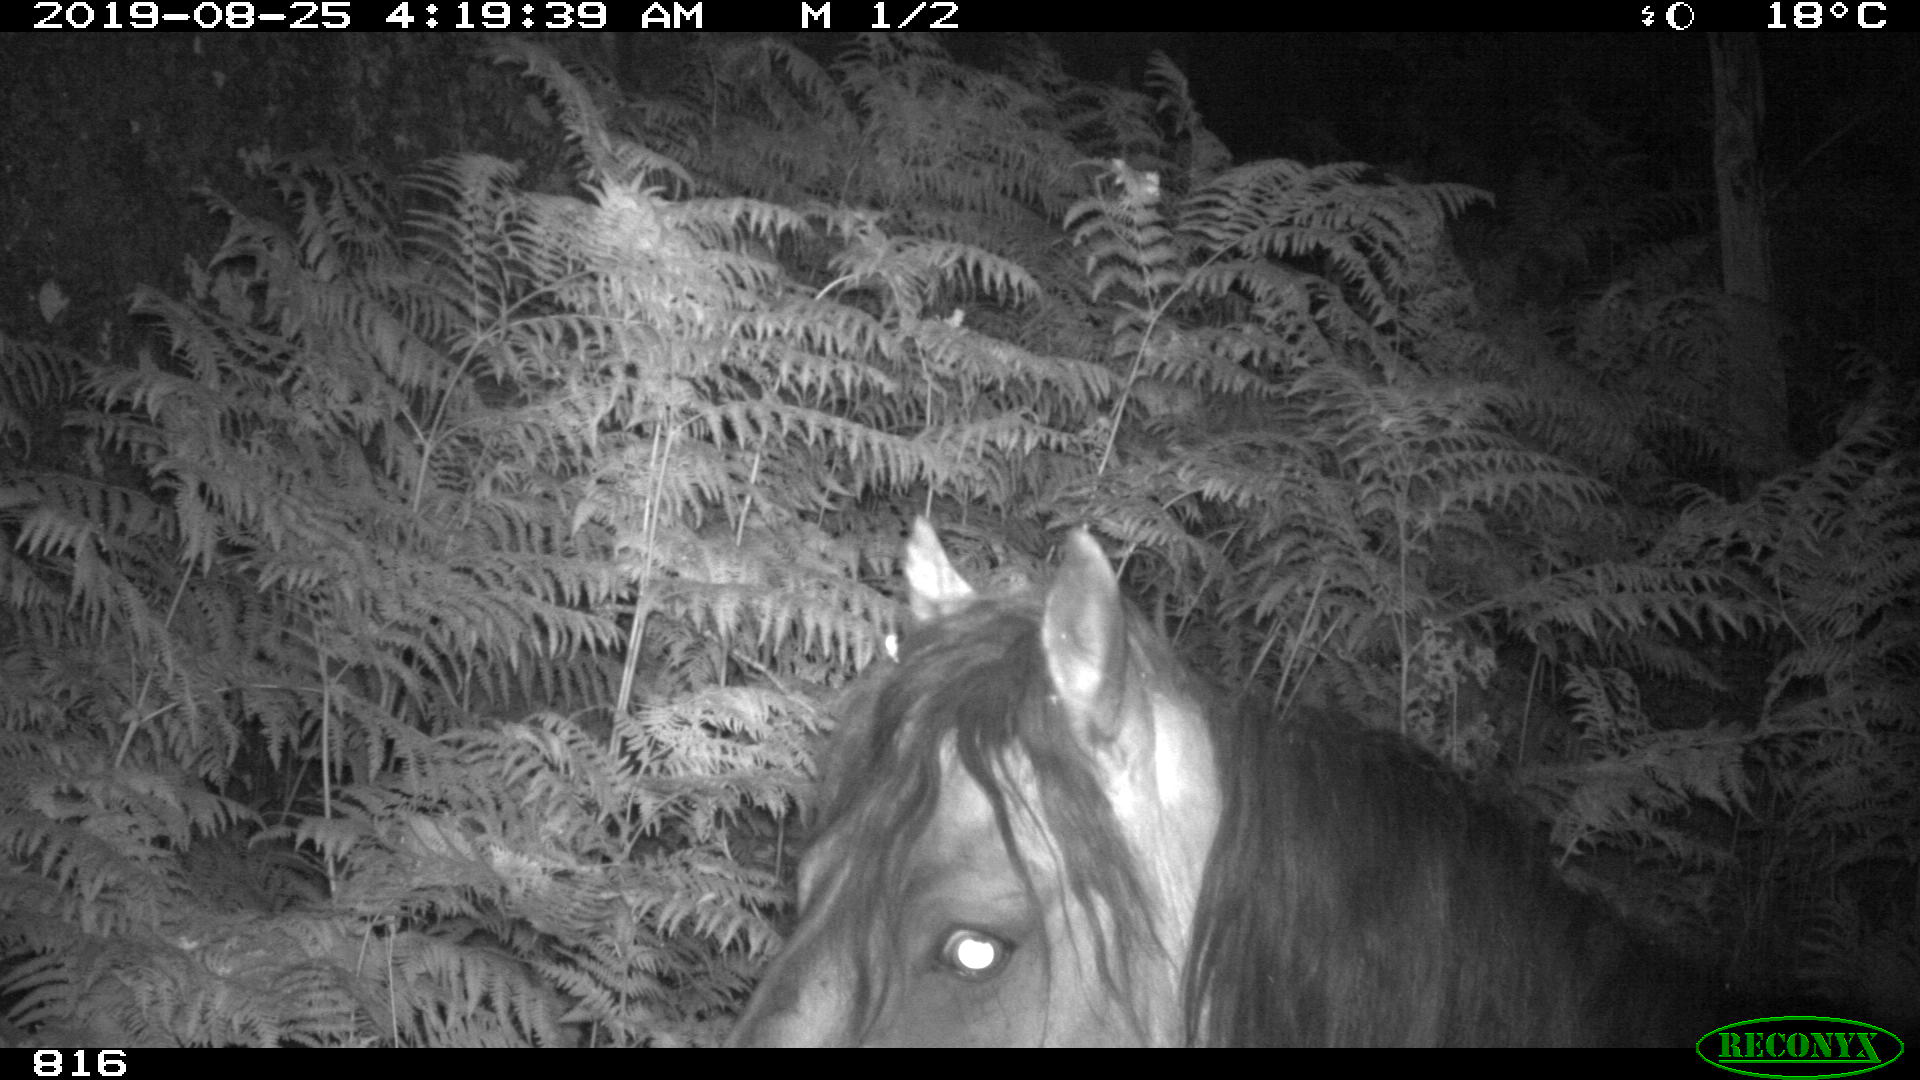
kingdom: Animalia
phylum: Chordata
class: Mammalia
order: Perissodactyla
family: Equidae
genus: Equus
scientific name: Equus caballus
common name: Horse
